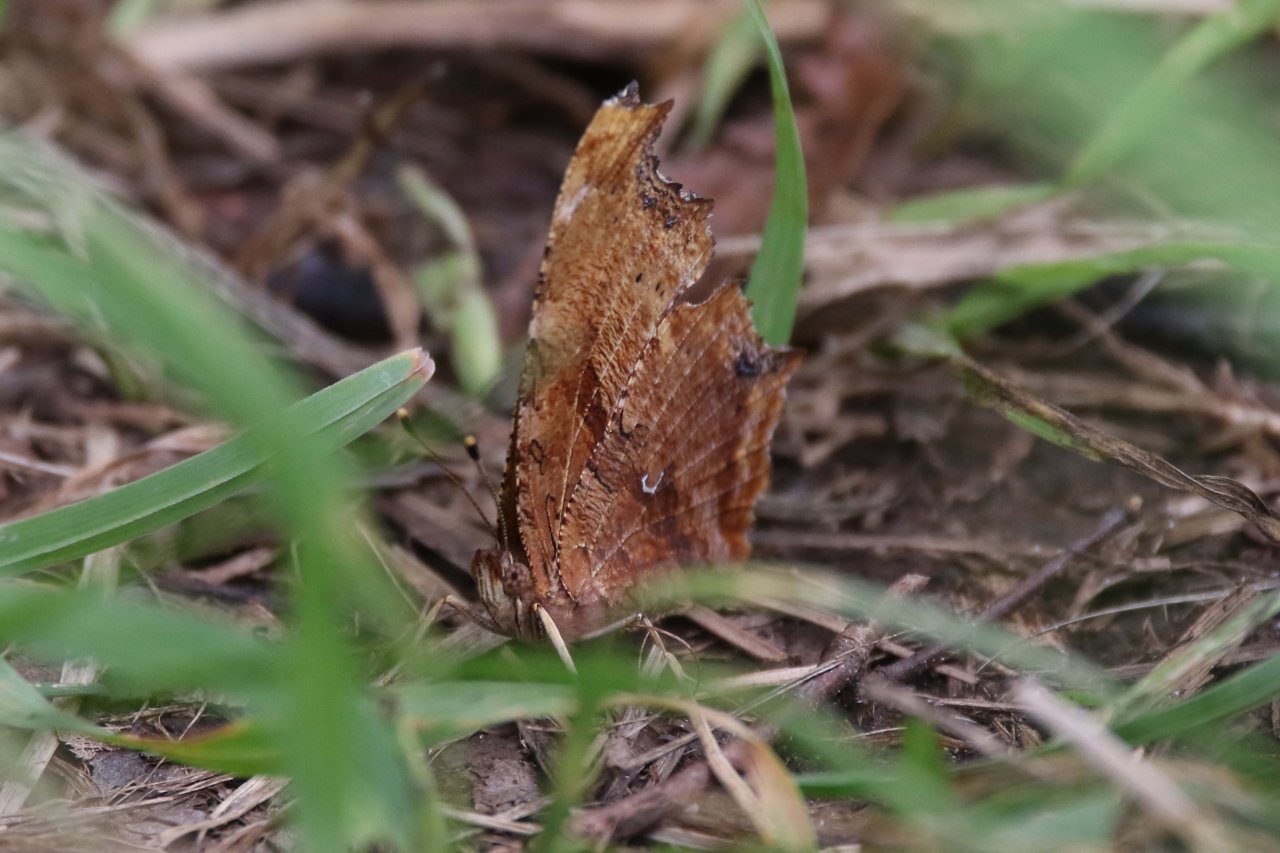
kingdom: Animalia
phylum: Arthropoda
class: Insecta
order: Lepidoptera
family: Nymphalidae
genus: Polygonia
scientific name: Polygonia comma
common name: Eastern Comma
